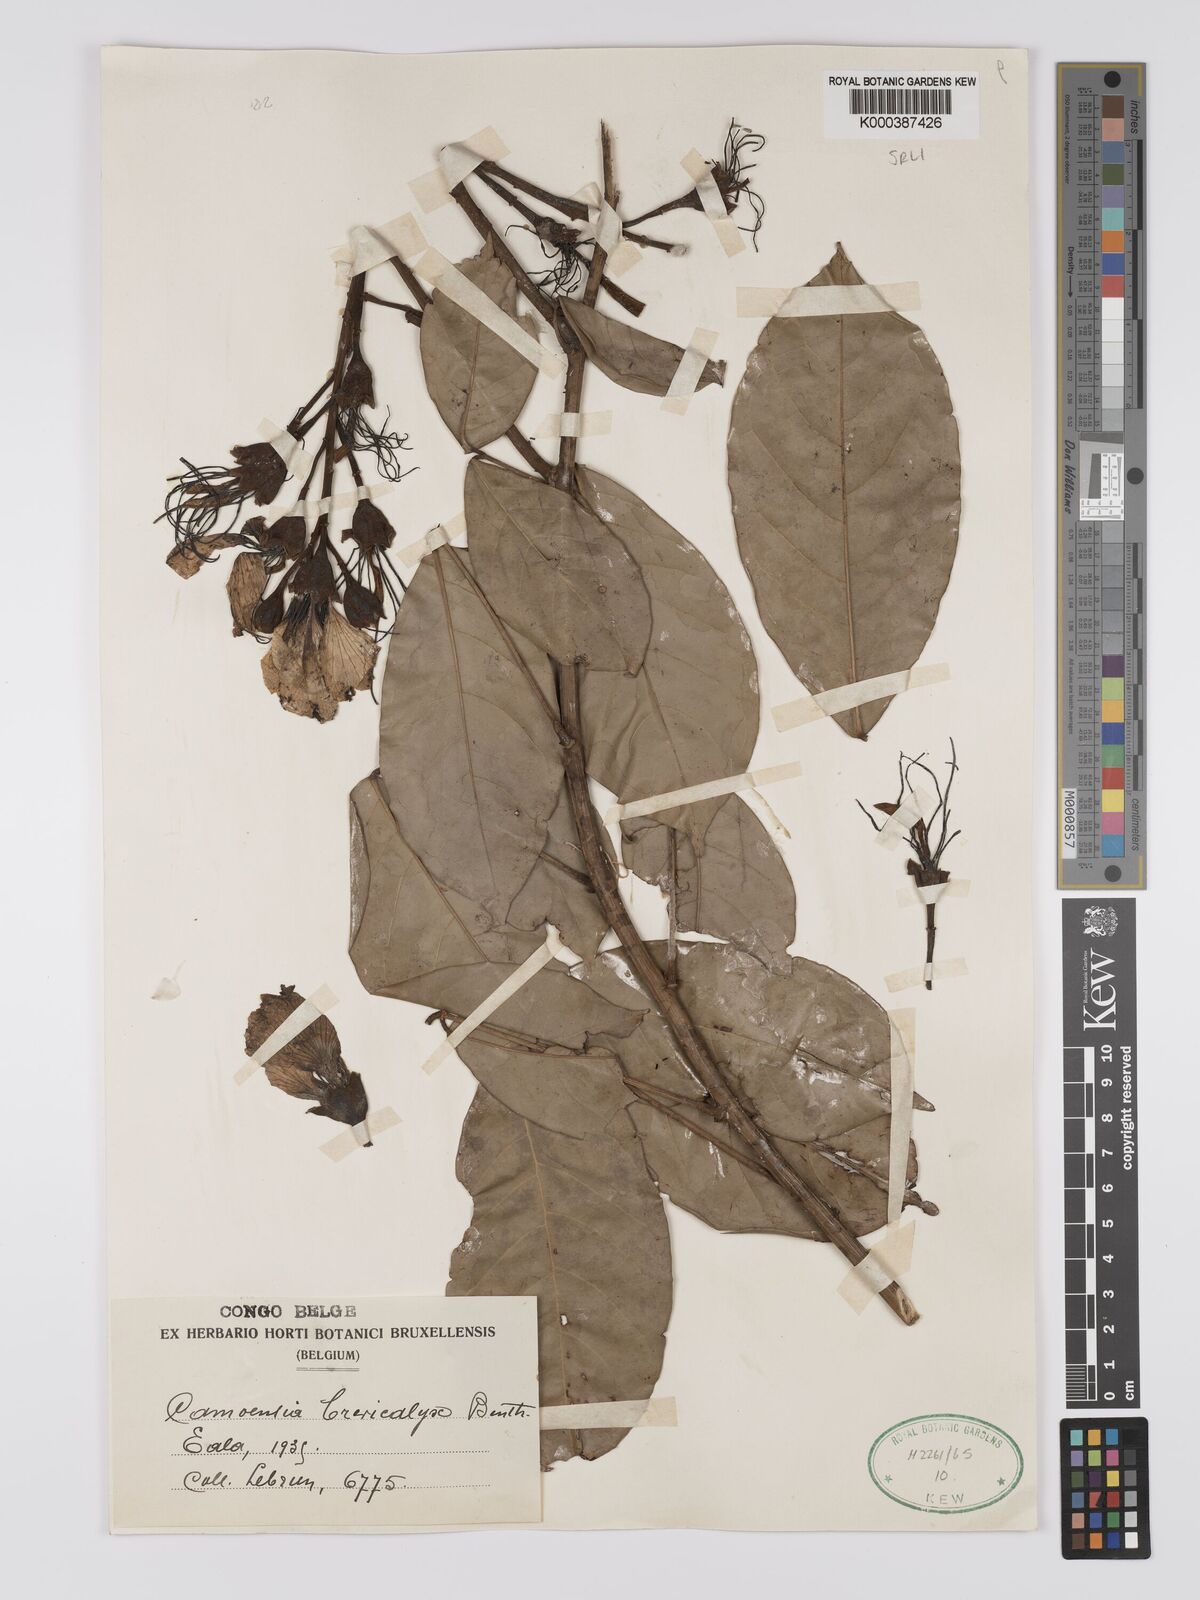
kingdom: Plantae
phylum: Tracheophyta
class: Magnoliopsida
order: Fabales
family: Fabaceae
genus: Camoensia
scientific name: Camoensia brevicalyx
